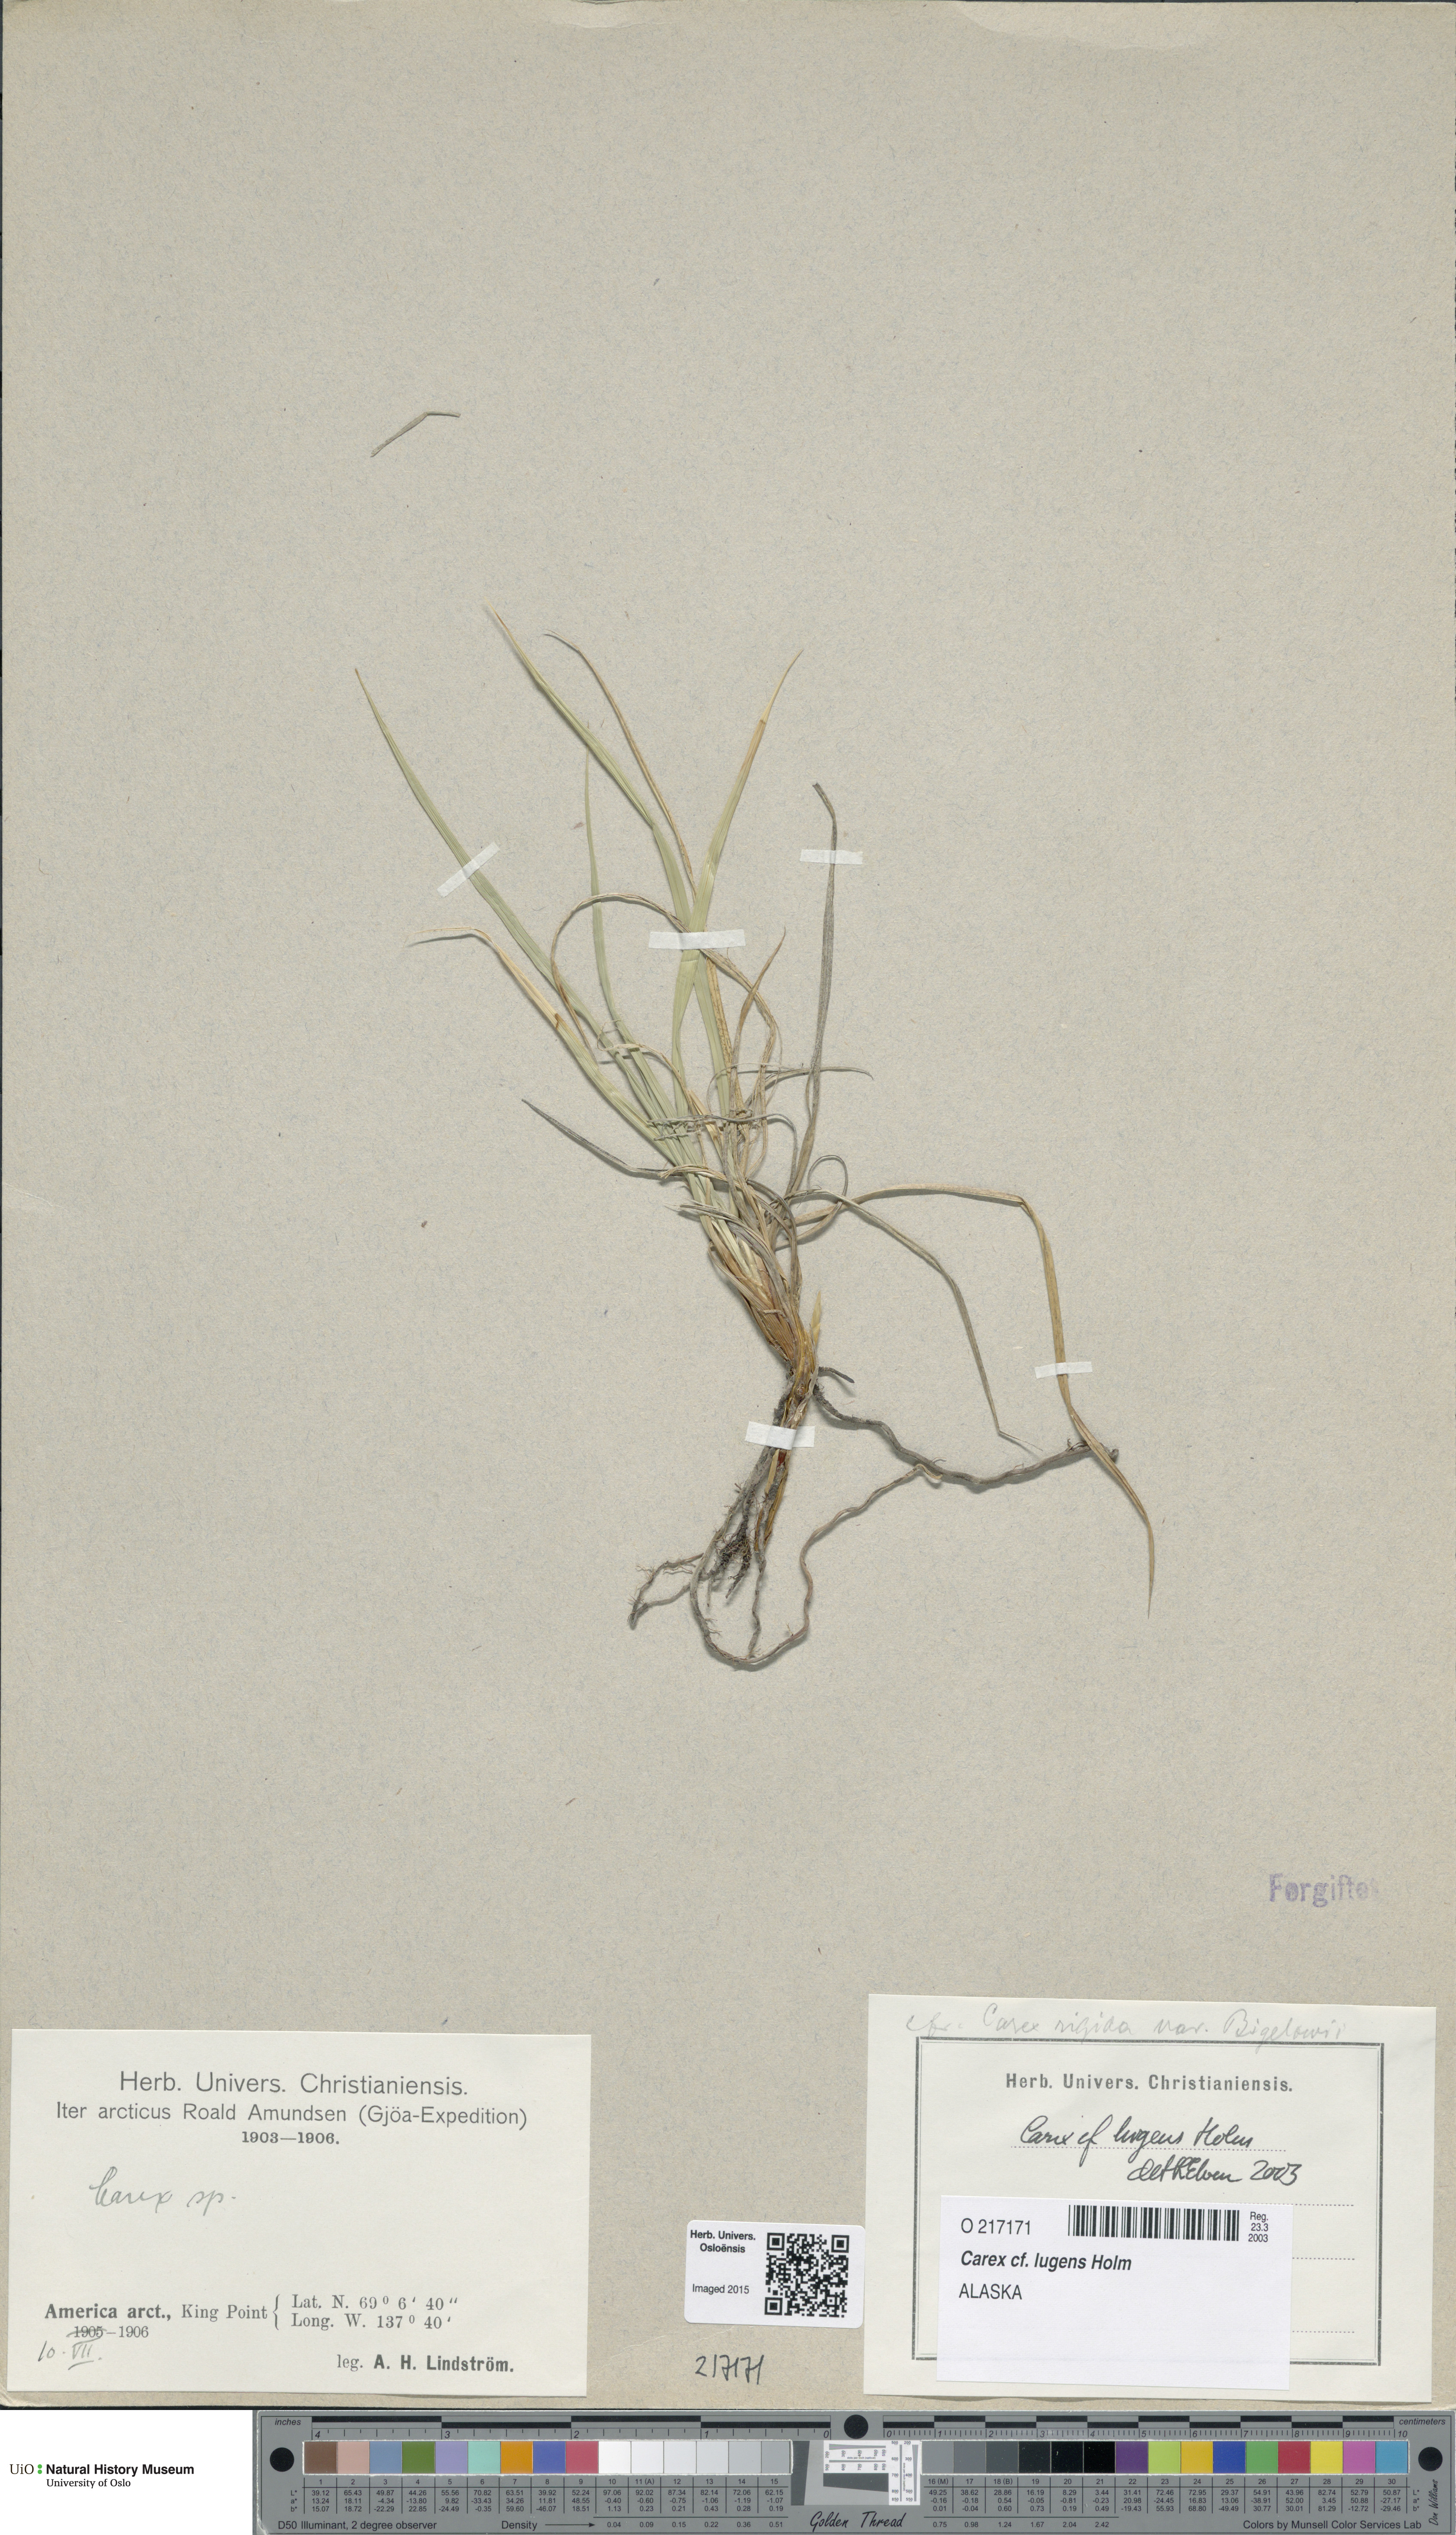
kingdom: Plantae
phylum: Tracheophyta
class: Liliopsida
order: Poales
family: Cyperaceae
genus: Carex
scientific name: Carex bigelowii
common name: Stiff sedge
